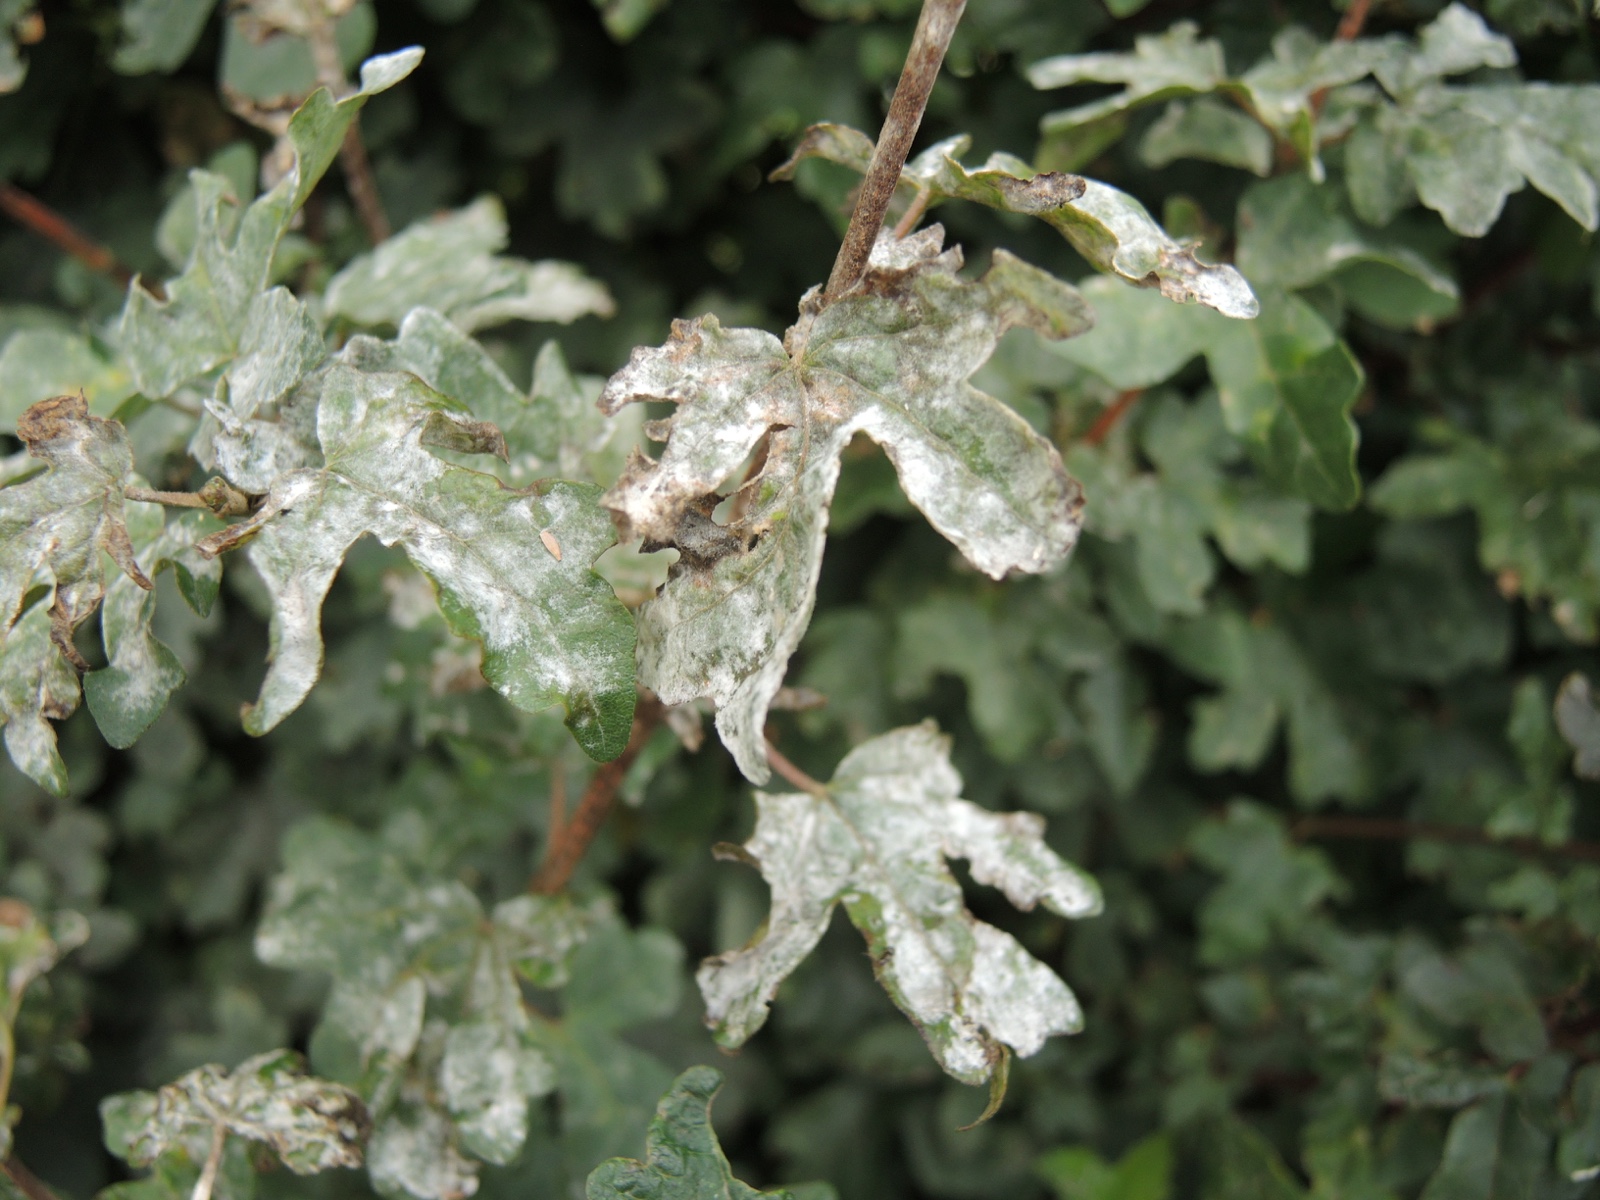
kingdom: Fungi
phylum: Ascomycota
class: Leotiomycetes
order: Helotiales
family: Erysiphaceae
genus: Sawadaea
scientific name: Sawadaea bicornis
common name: Maple mildew
